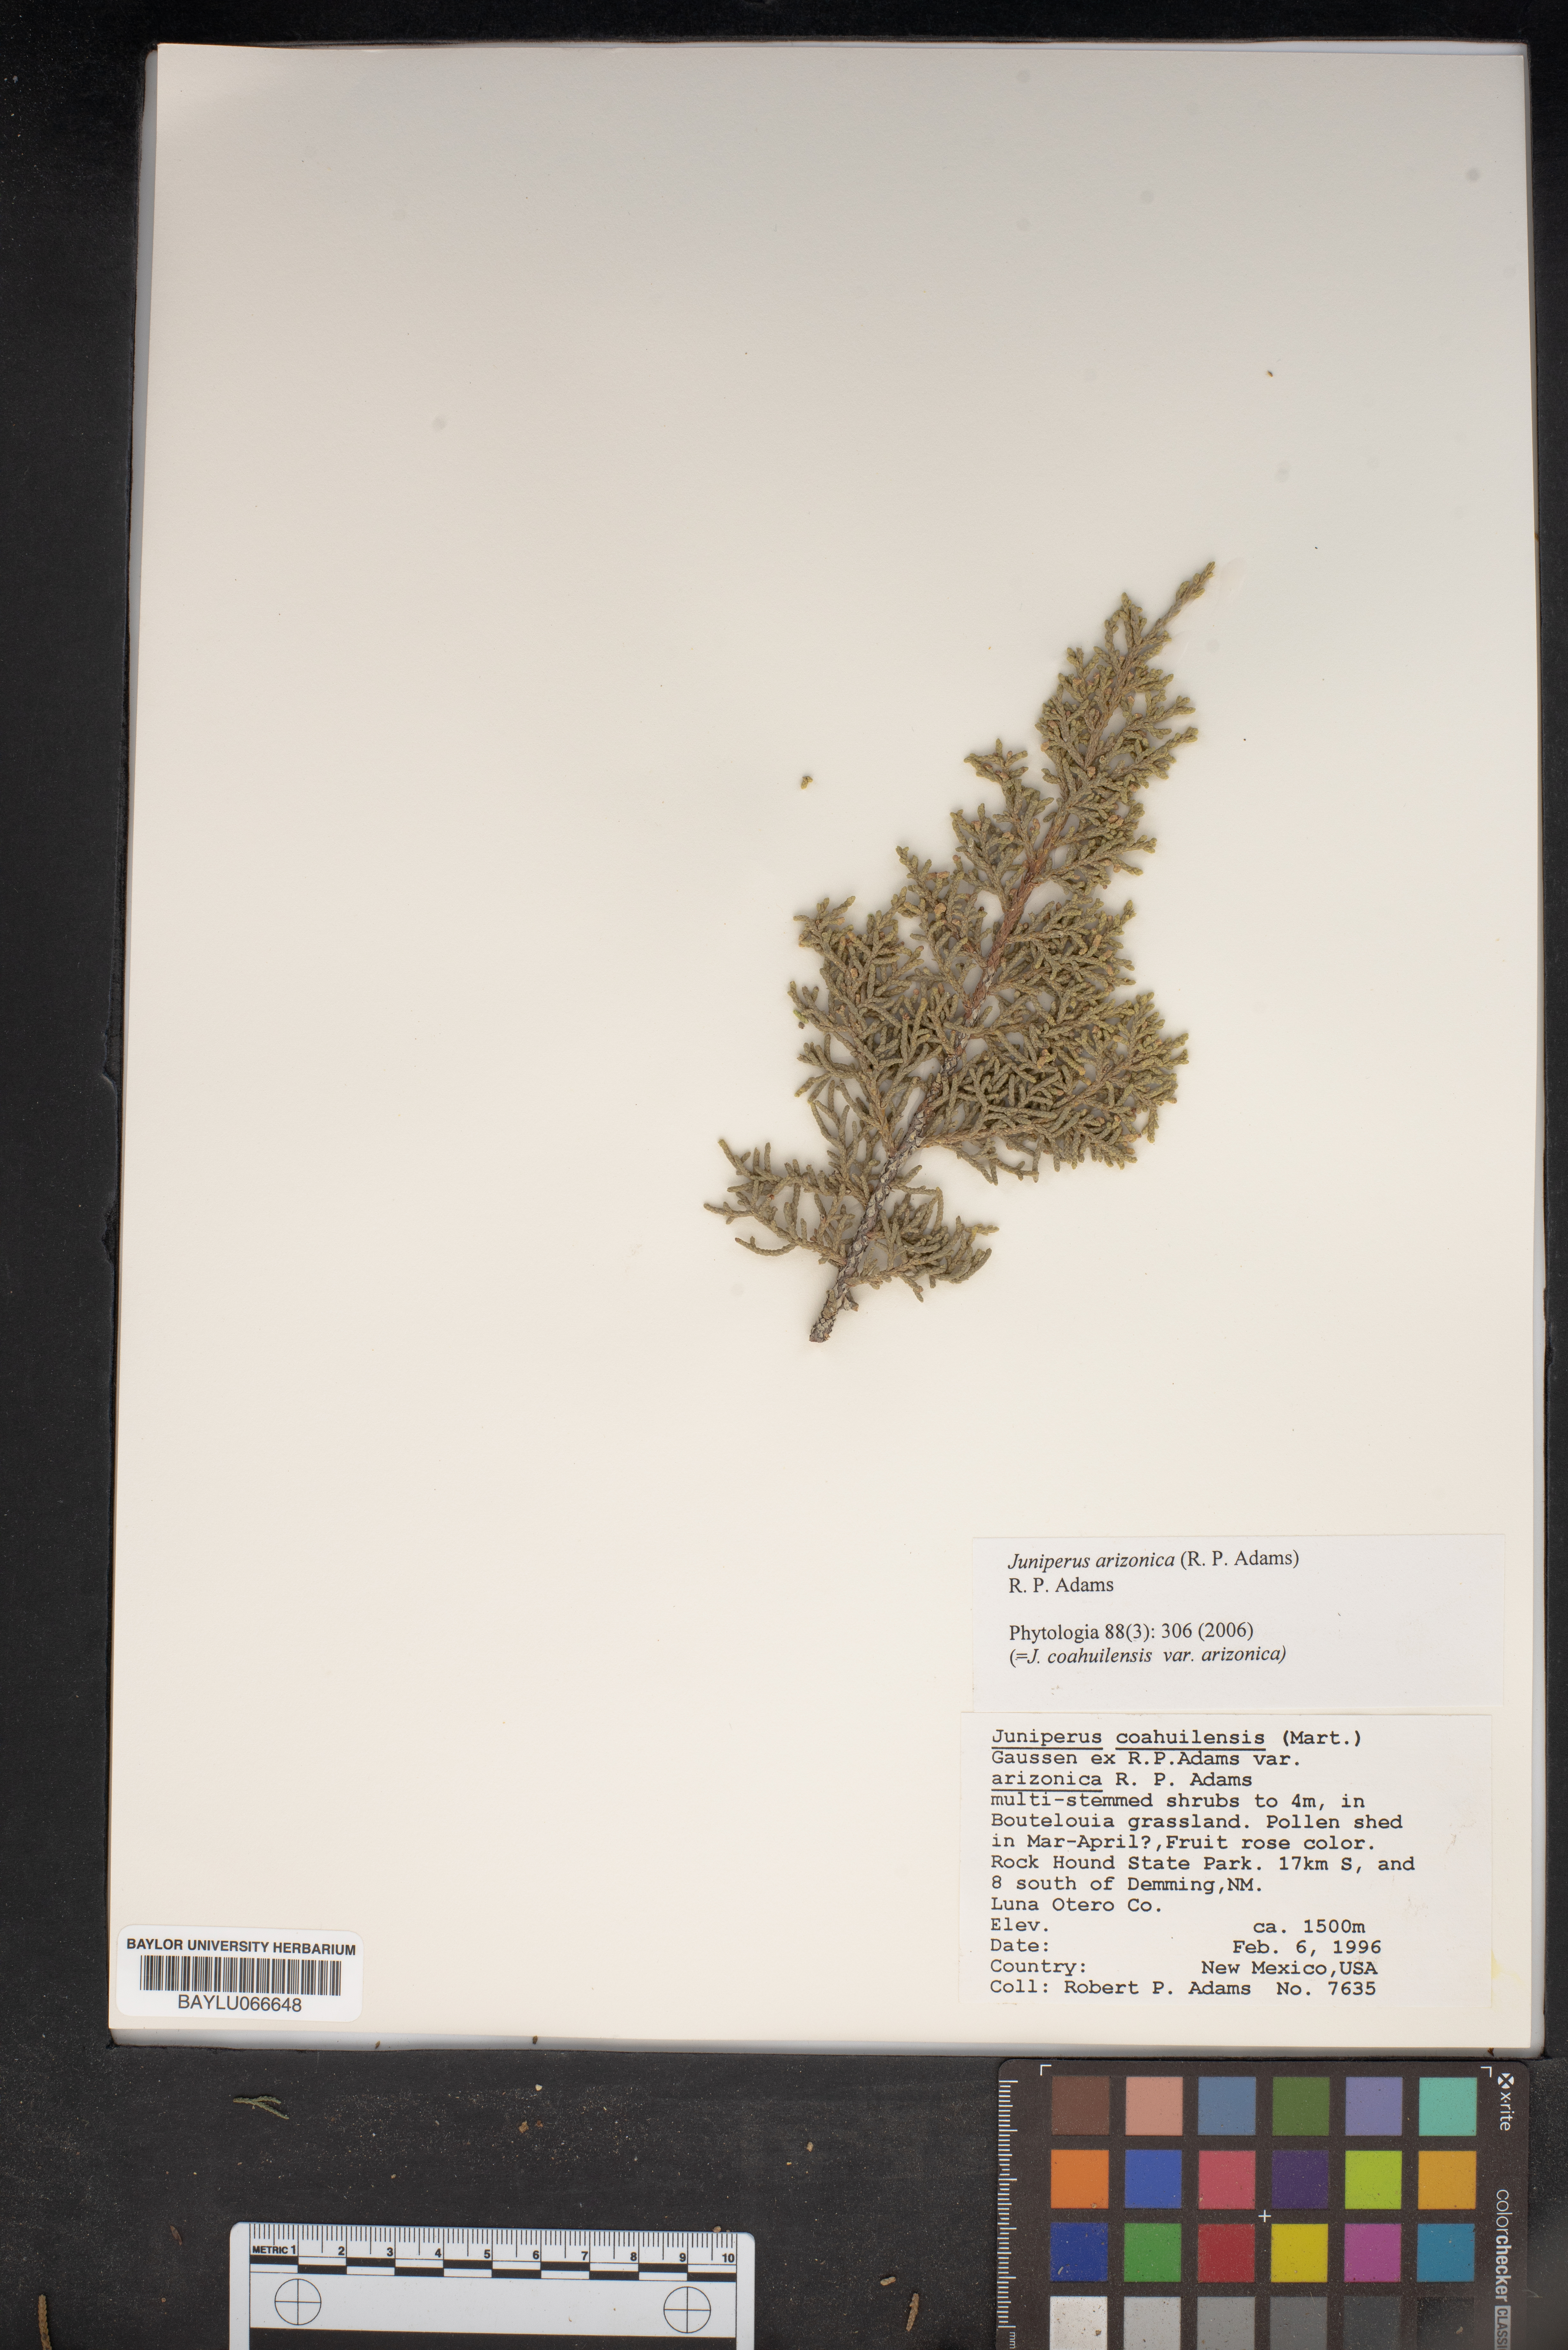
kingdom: Plantae
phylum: Tracheophyta
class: Pinopsida
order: Pinales
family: Cupressaceae
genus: Juniperus
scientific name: Juniperus arizonica
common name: Arizona juniper
